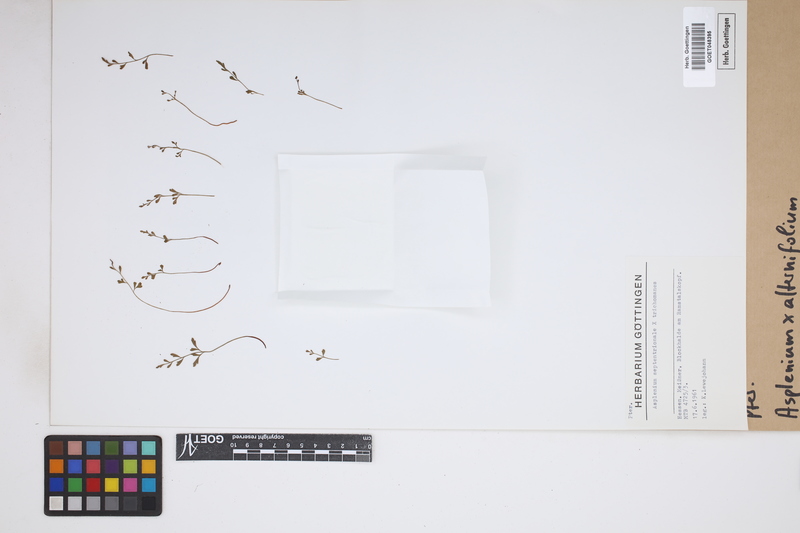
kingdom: Plantae
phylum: Tracheophyta
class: Polypodiopsida
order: Polypodiales
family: Aspleniaceae
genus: Asplenium
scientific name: Asplenium alternifolium
